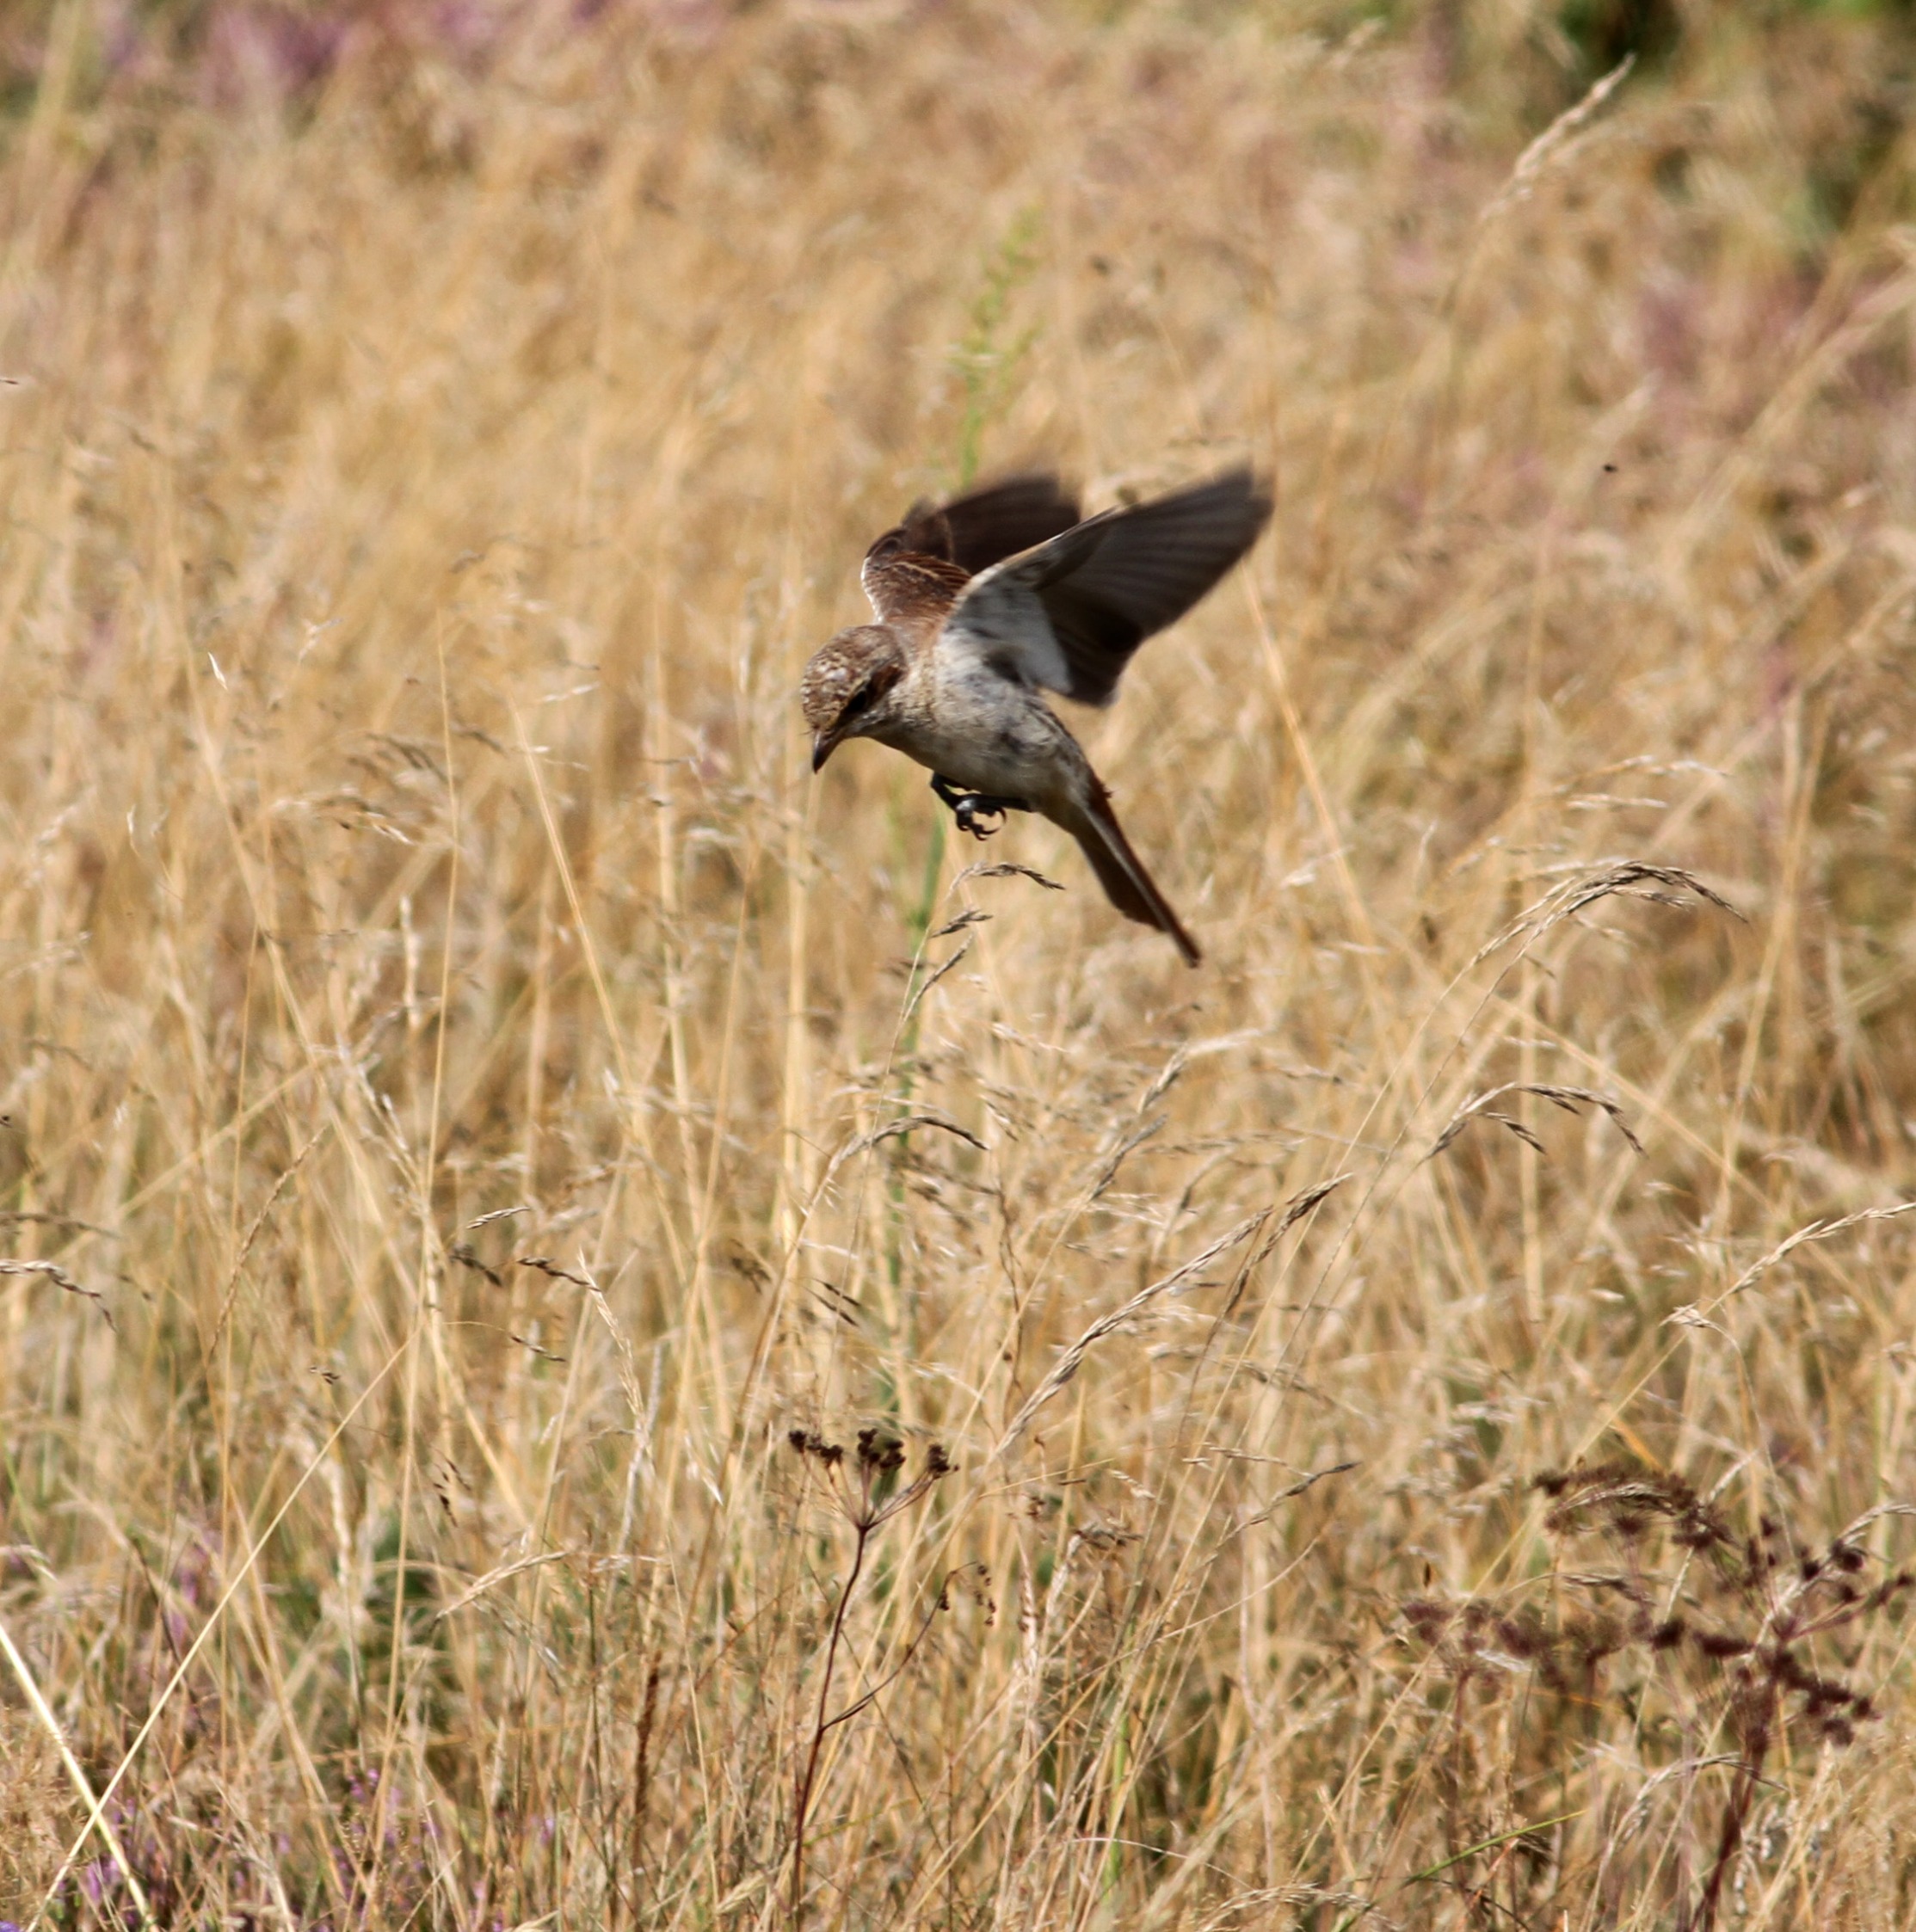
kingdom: Animalia
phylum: Chordata
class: Aves
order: Passeriformes
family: Laniidae
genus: Lanius
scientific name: Lanius collurio
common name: Rødrygget tornskade
